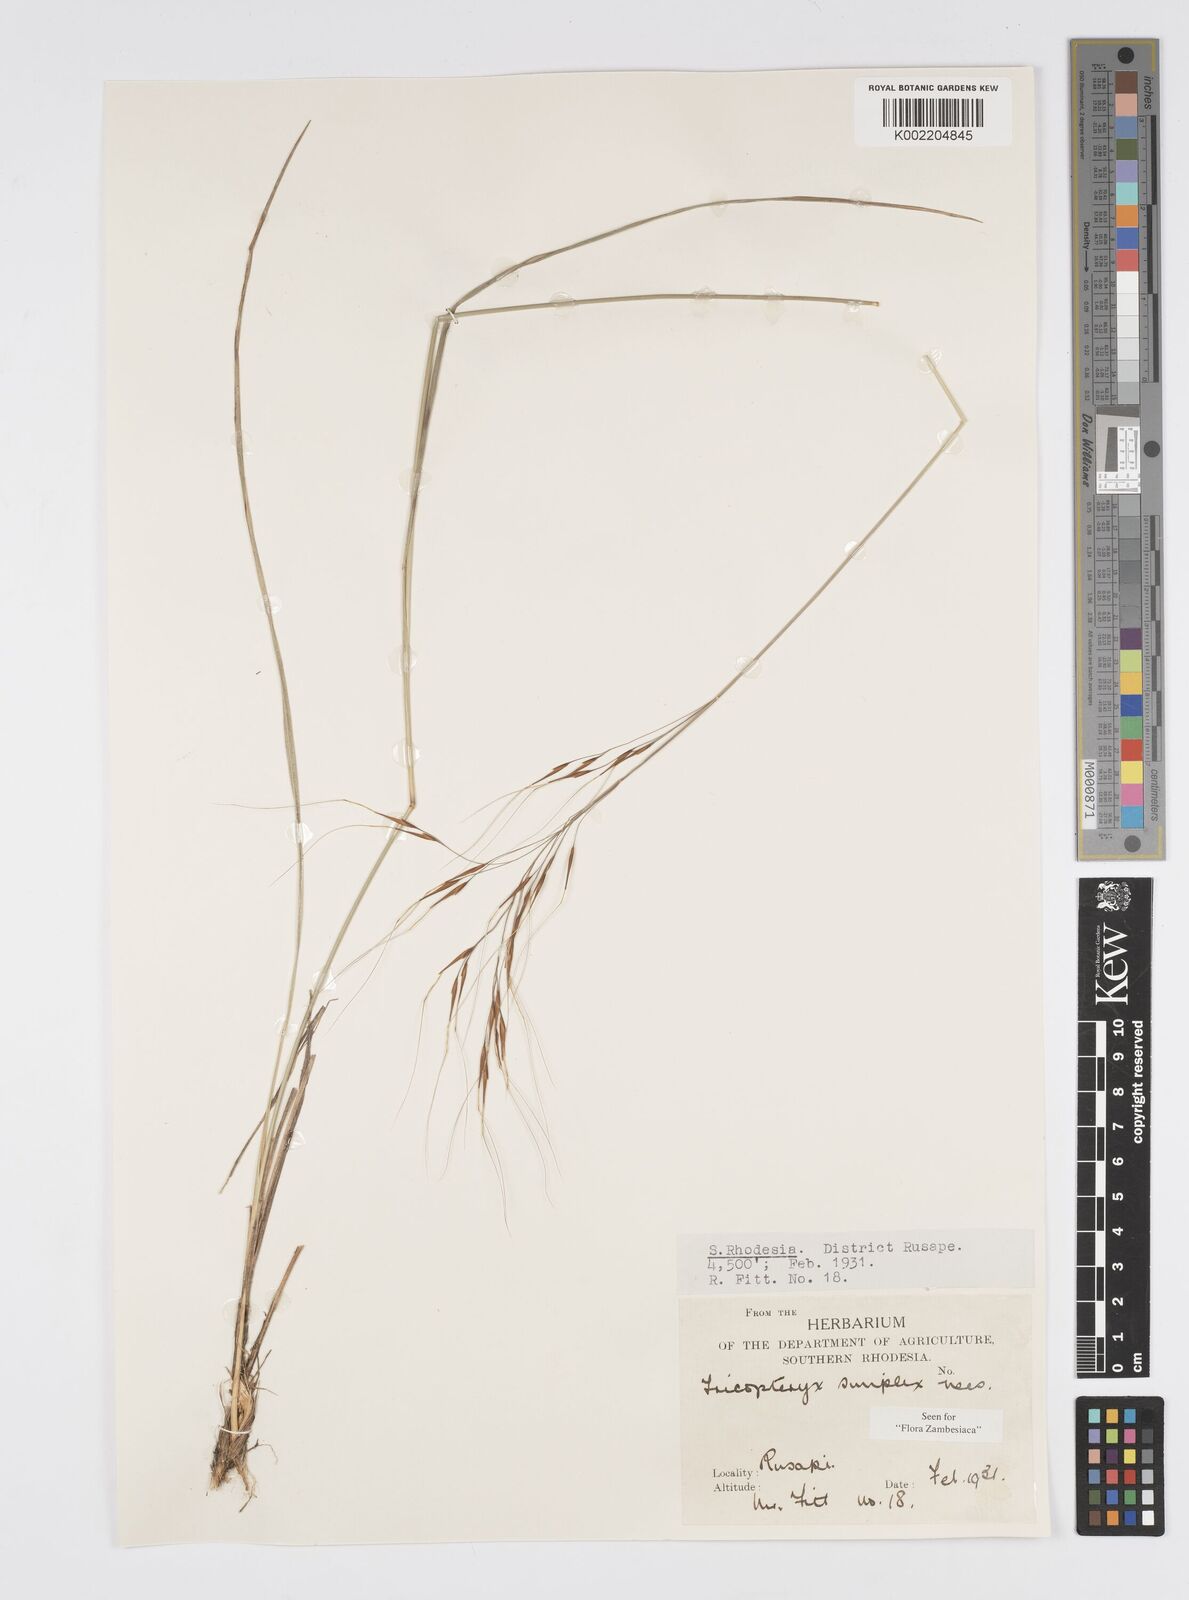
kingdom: Plantae
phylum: Tracheophyta
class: Liliopsida
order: Poales
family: Poaceae
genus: Loudetia
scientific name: Loudetia simplex
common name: Common russet grass
